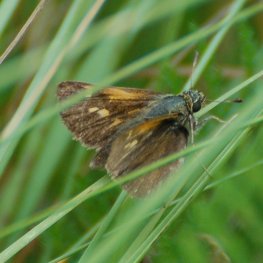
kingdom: Animalia
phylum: Arthropoda
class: Insecta
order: Lepidoptera
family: Hesperiidae
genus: Polites
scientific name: Polites themistocles
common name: Tawny-edged Skipper
